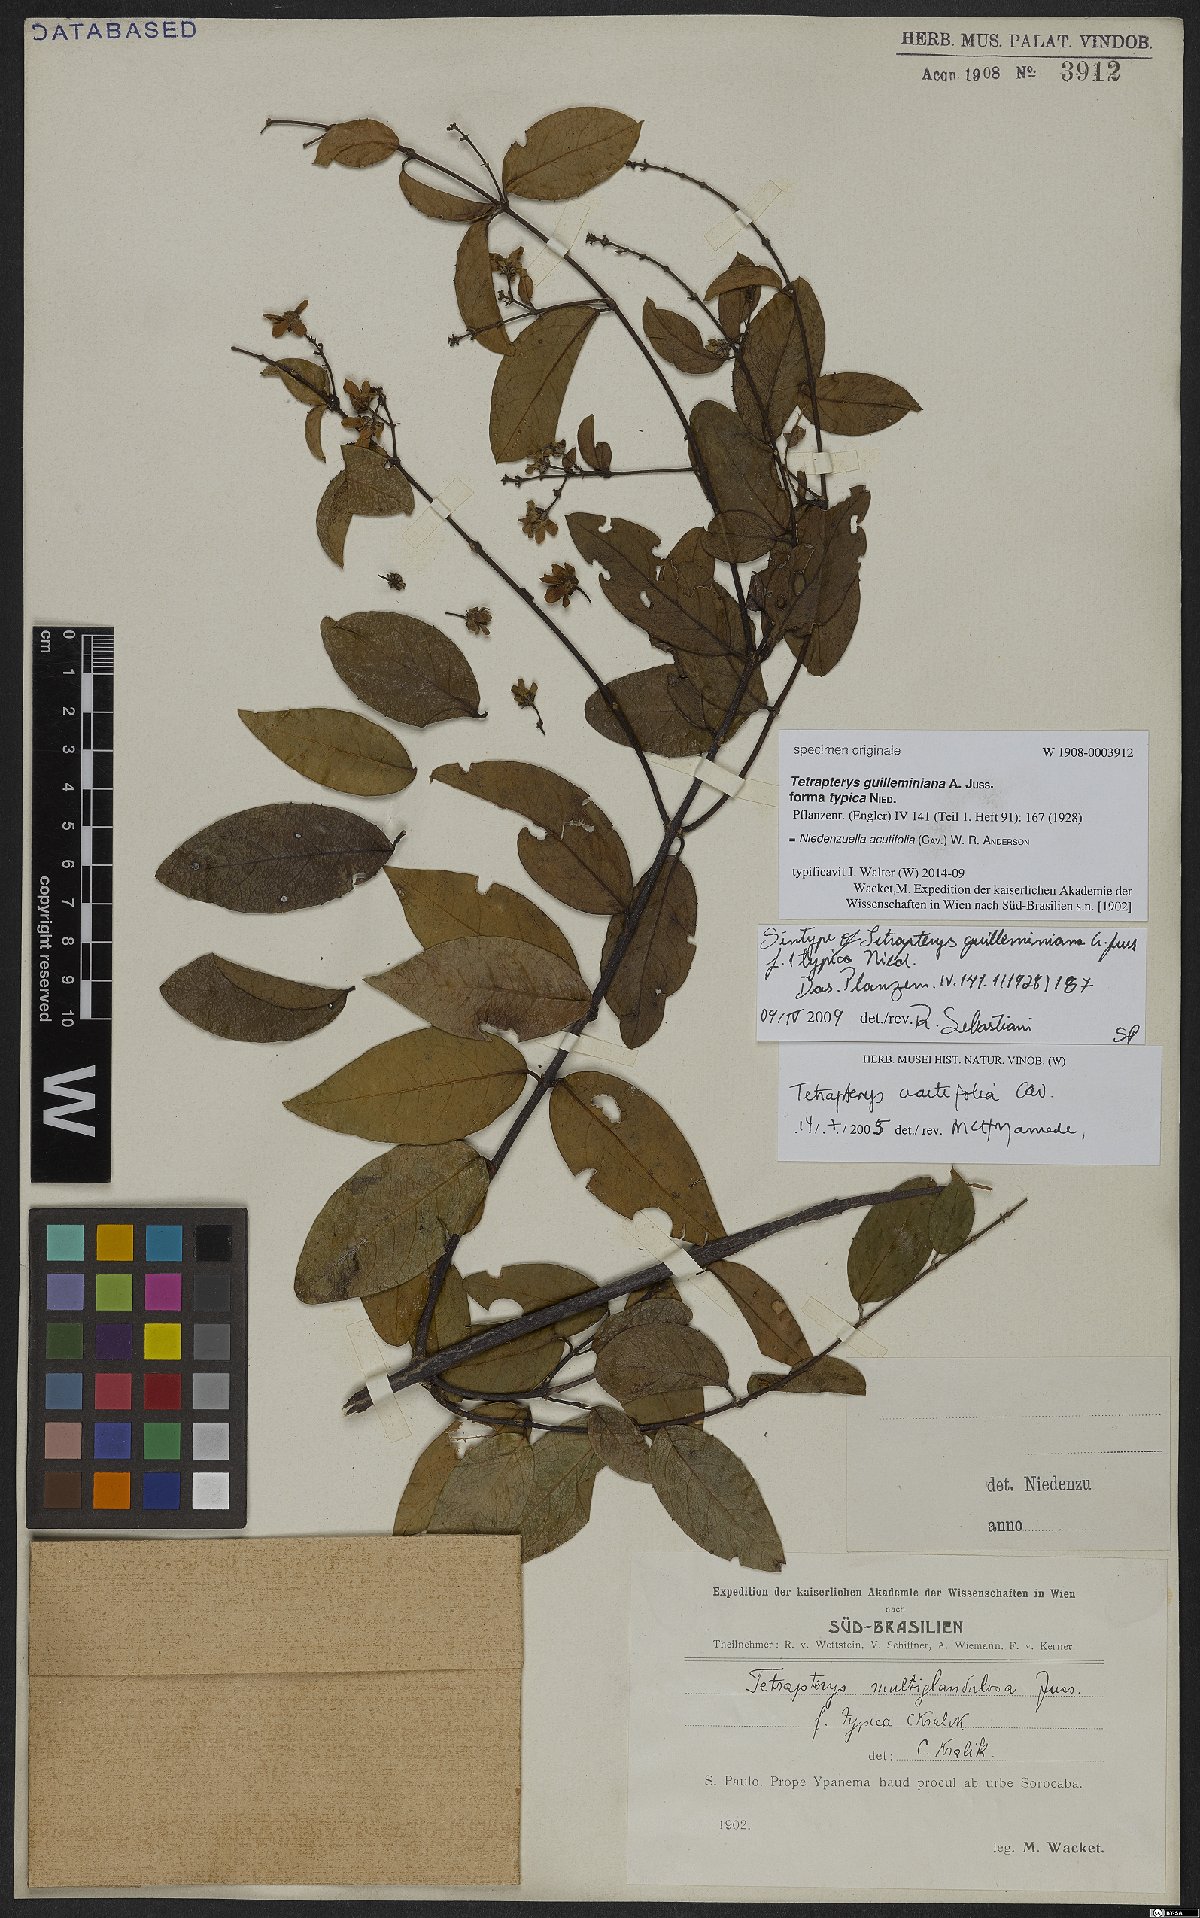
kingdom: Plantae
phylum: Tracheophyta
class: Magnoliopsida
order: Malpighiales
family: Malpighiaceae
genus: Niedenzuella
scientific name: Niedenzuella acutifolia
